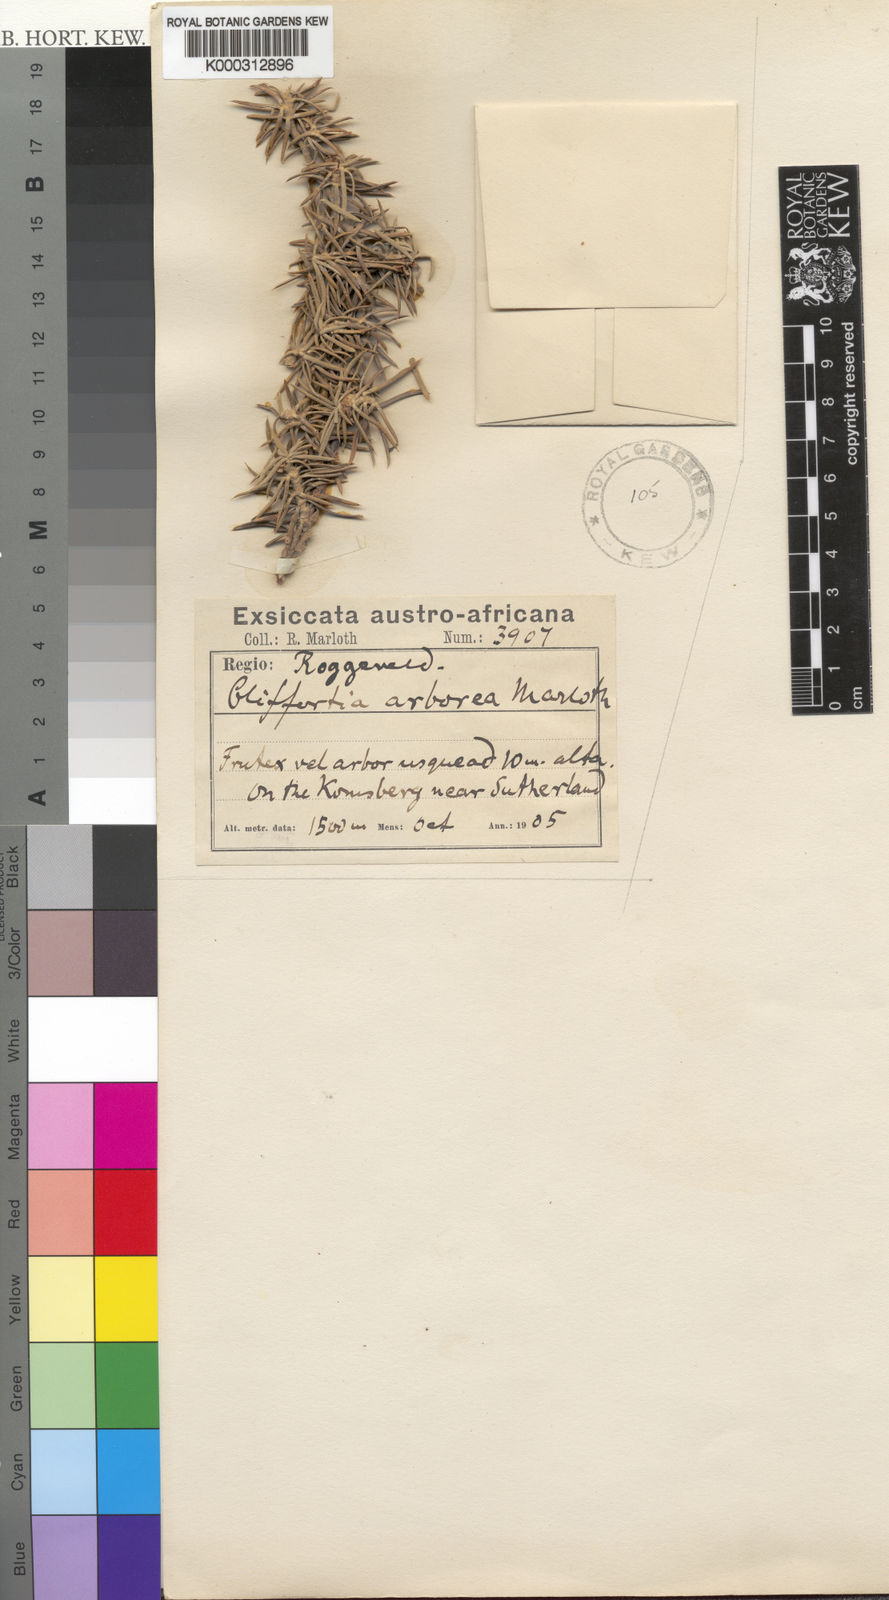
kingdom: Plantae
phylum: Tracheophyta
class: Magnoliopsida
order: Rosales
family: Rosaceae
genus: Cliffortia
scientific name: Cliffortia arborea
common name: Bokkeveld tree rice-bush
